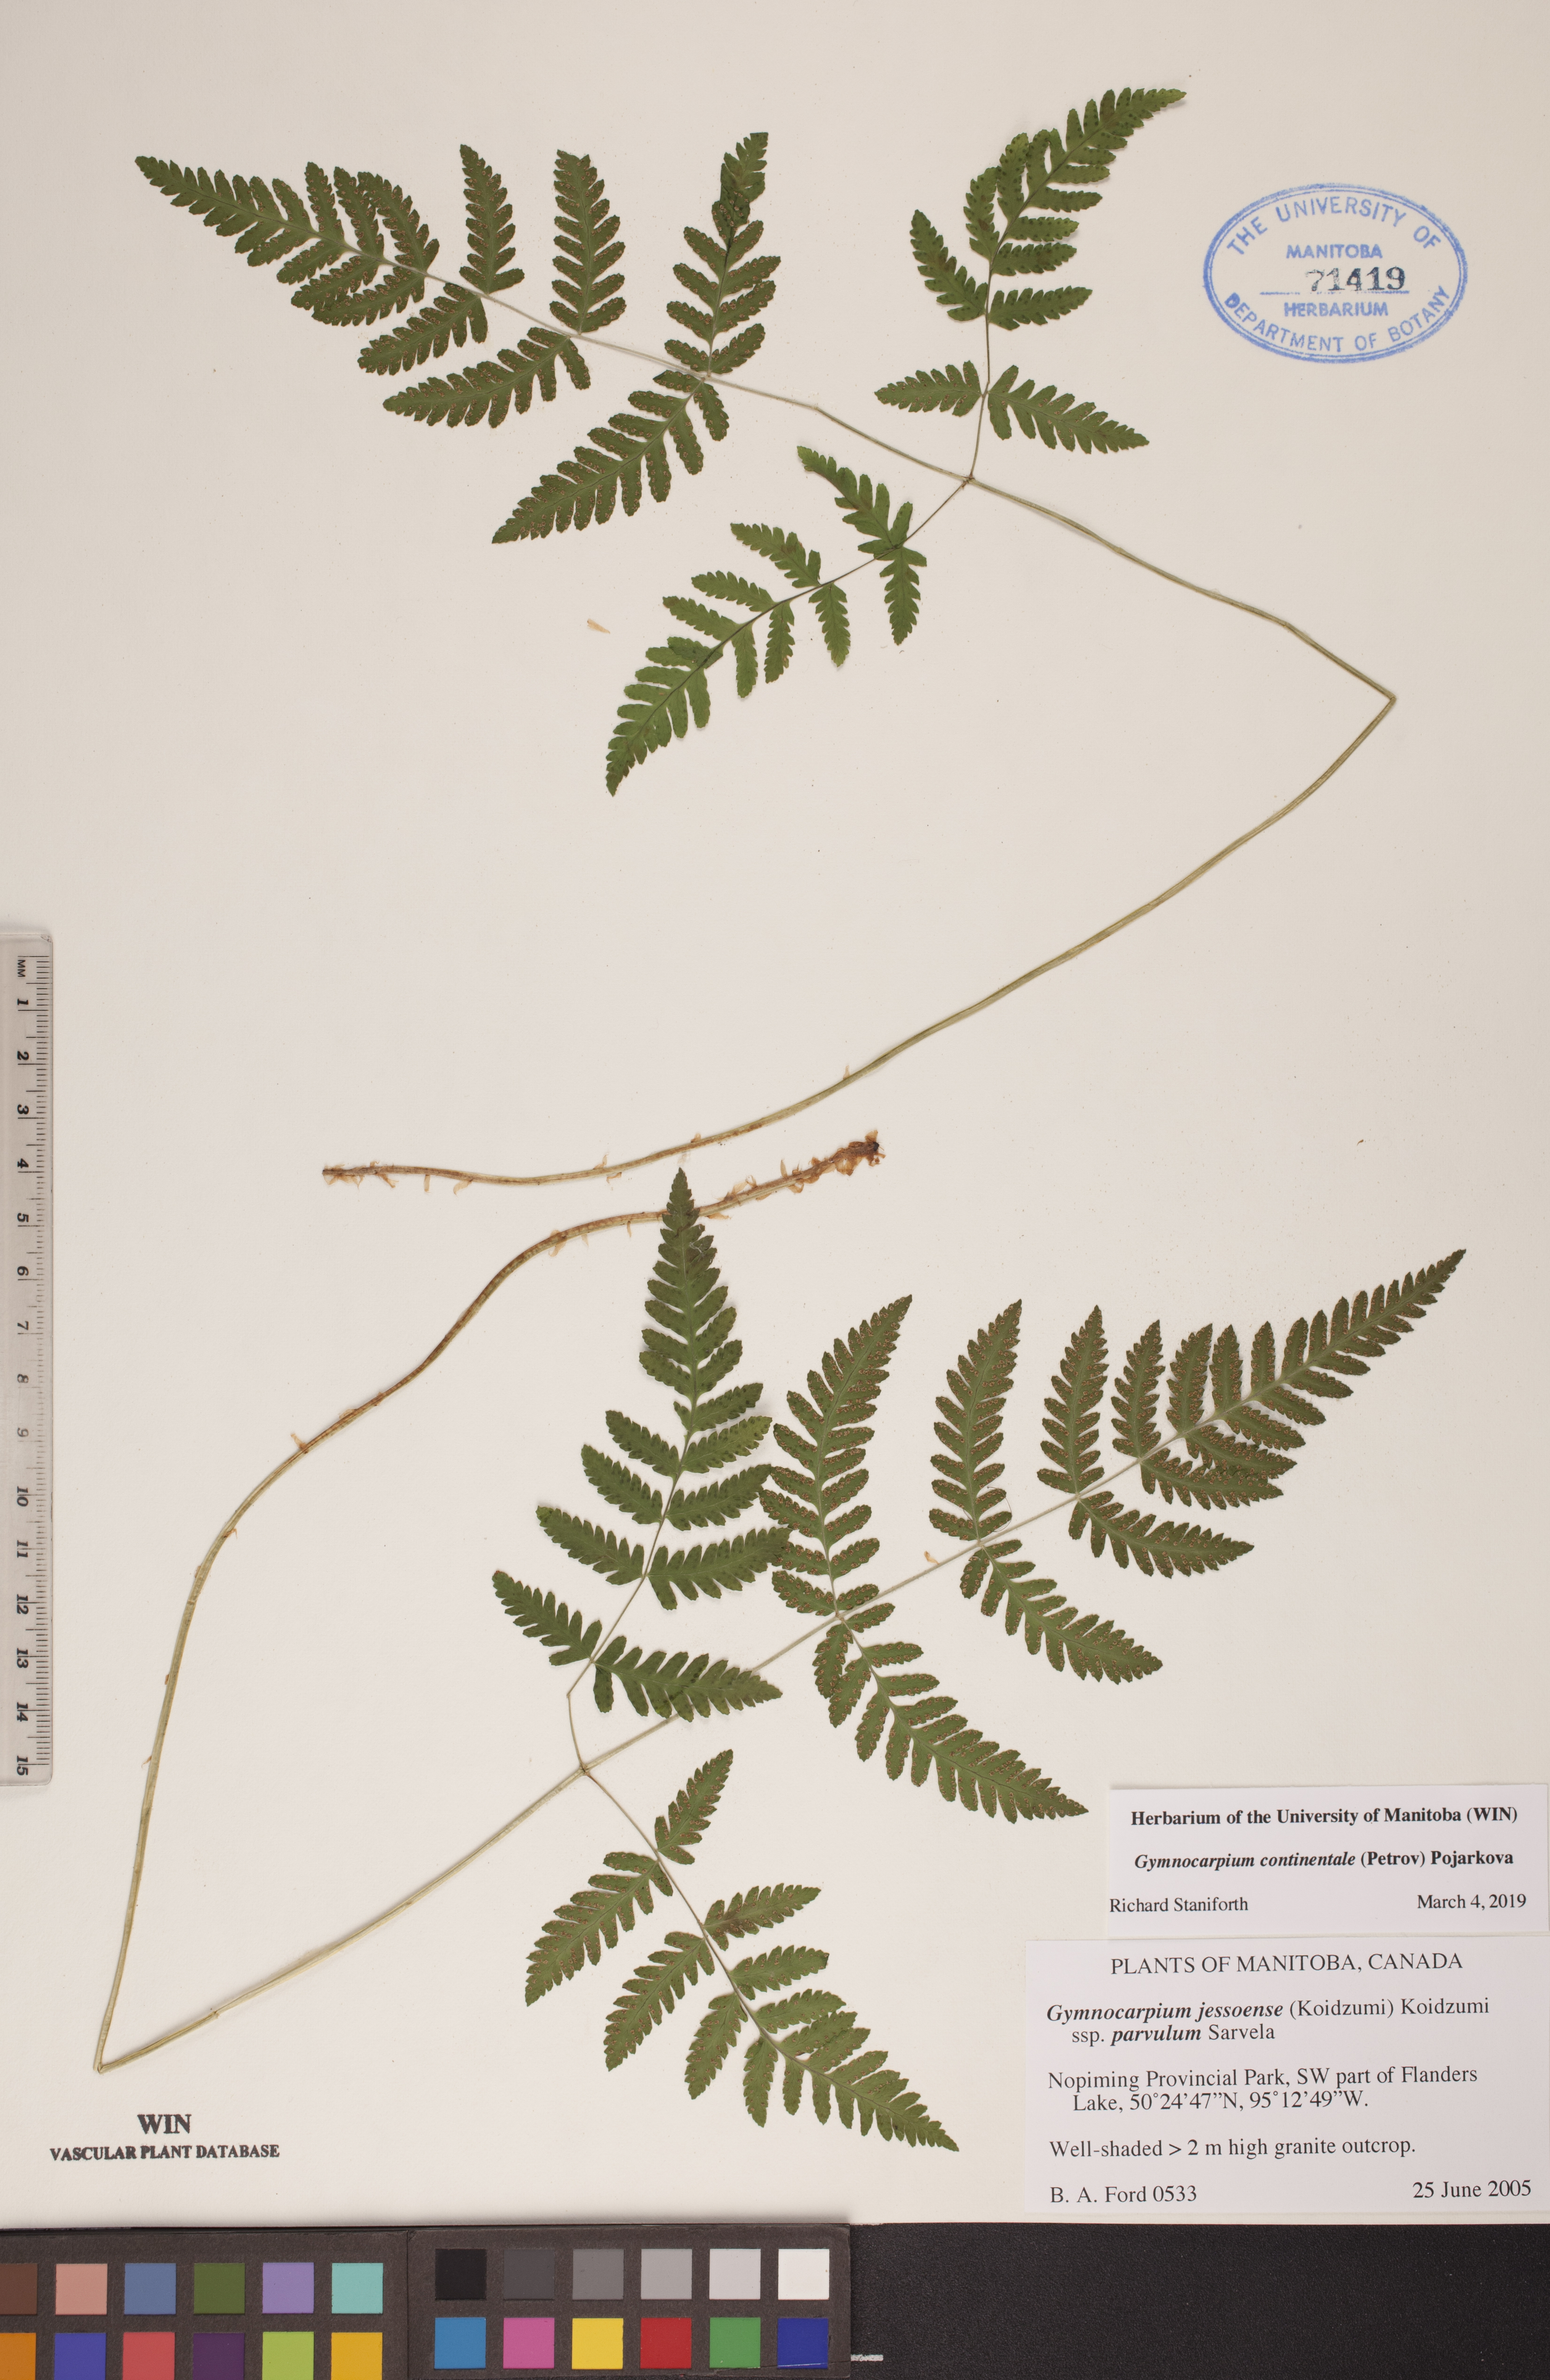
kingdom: Plantae
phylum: Tracheophyta
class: Polypodiopsida
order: Polypodiales
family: Cystopteridaceae
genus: Gymnocarpium
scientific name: Gymnocarpium continentale
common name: Asian oak fern
